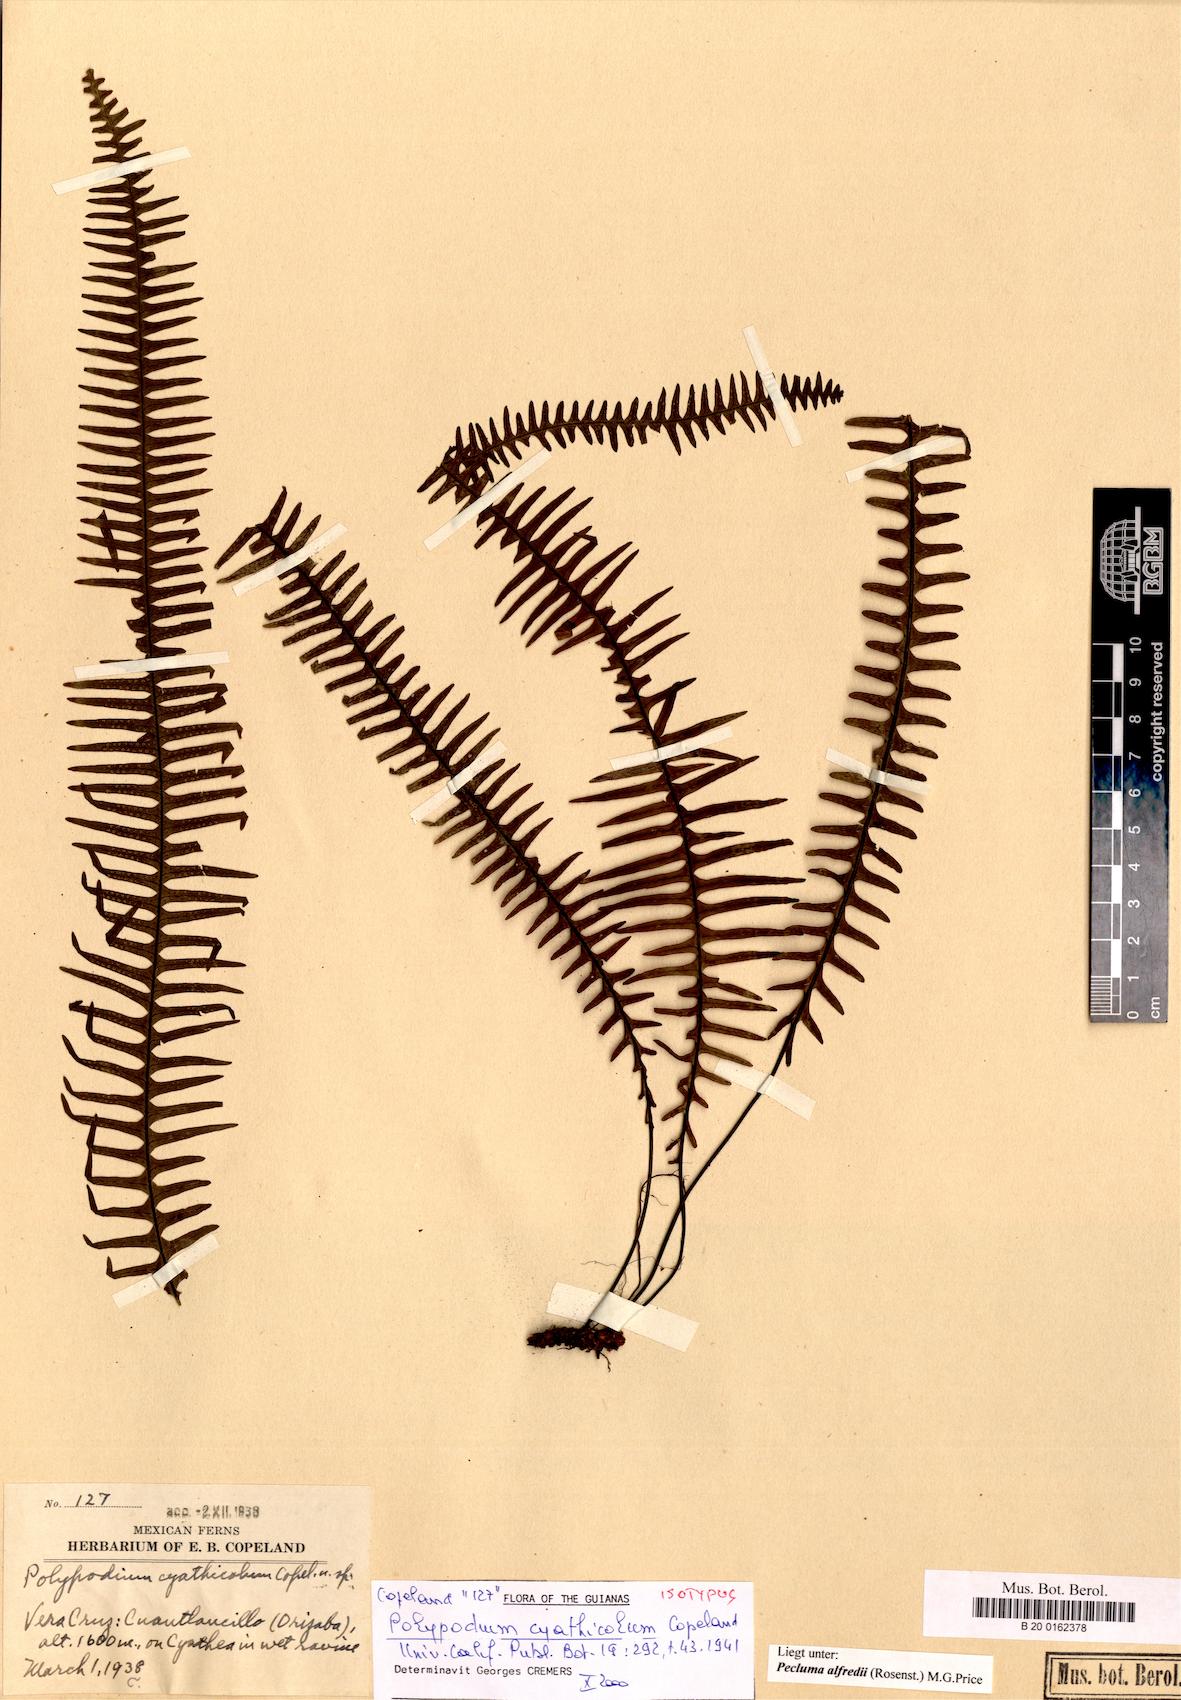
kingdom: Plantae
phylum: Tracheophyta
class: Polypodiopsida
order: Polypodiales
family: Polypodiaceae
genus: Pecluma
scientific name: Pecluma alfredii
